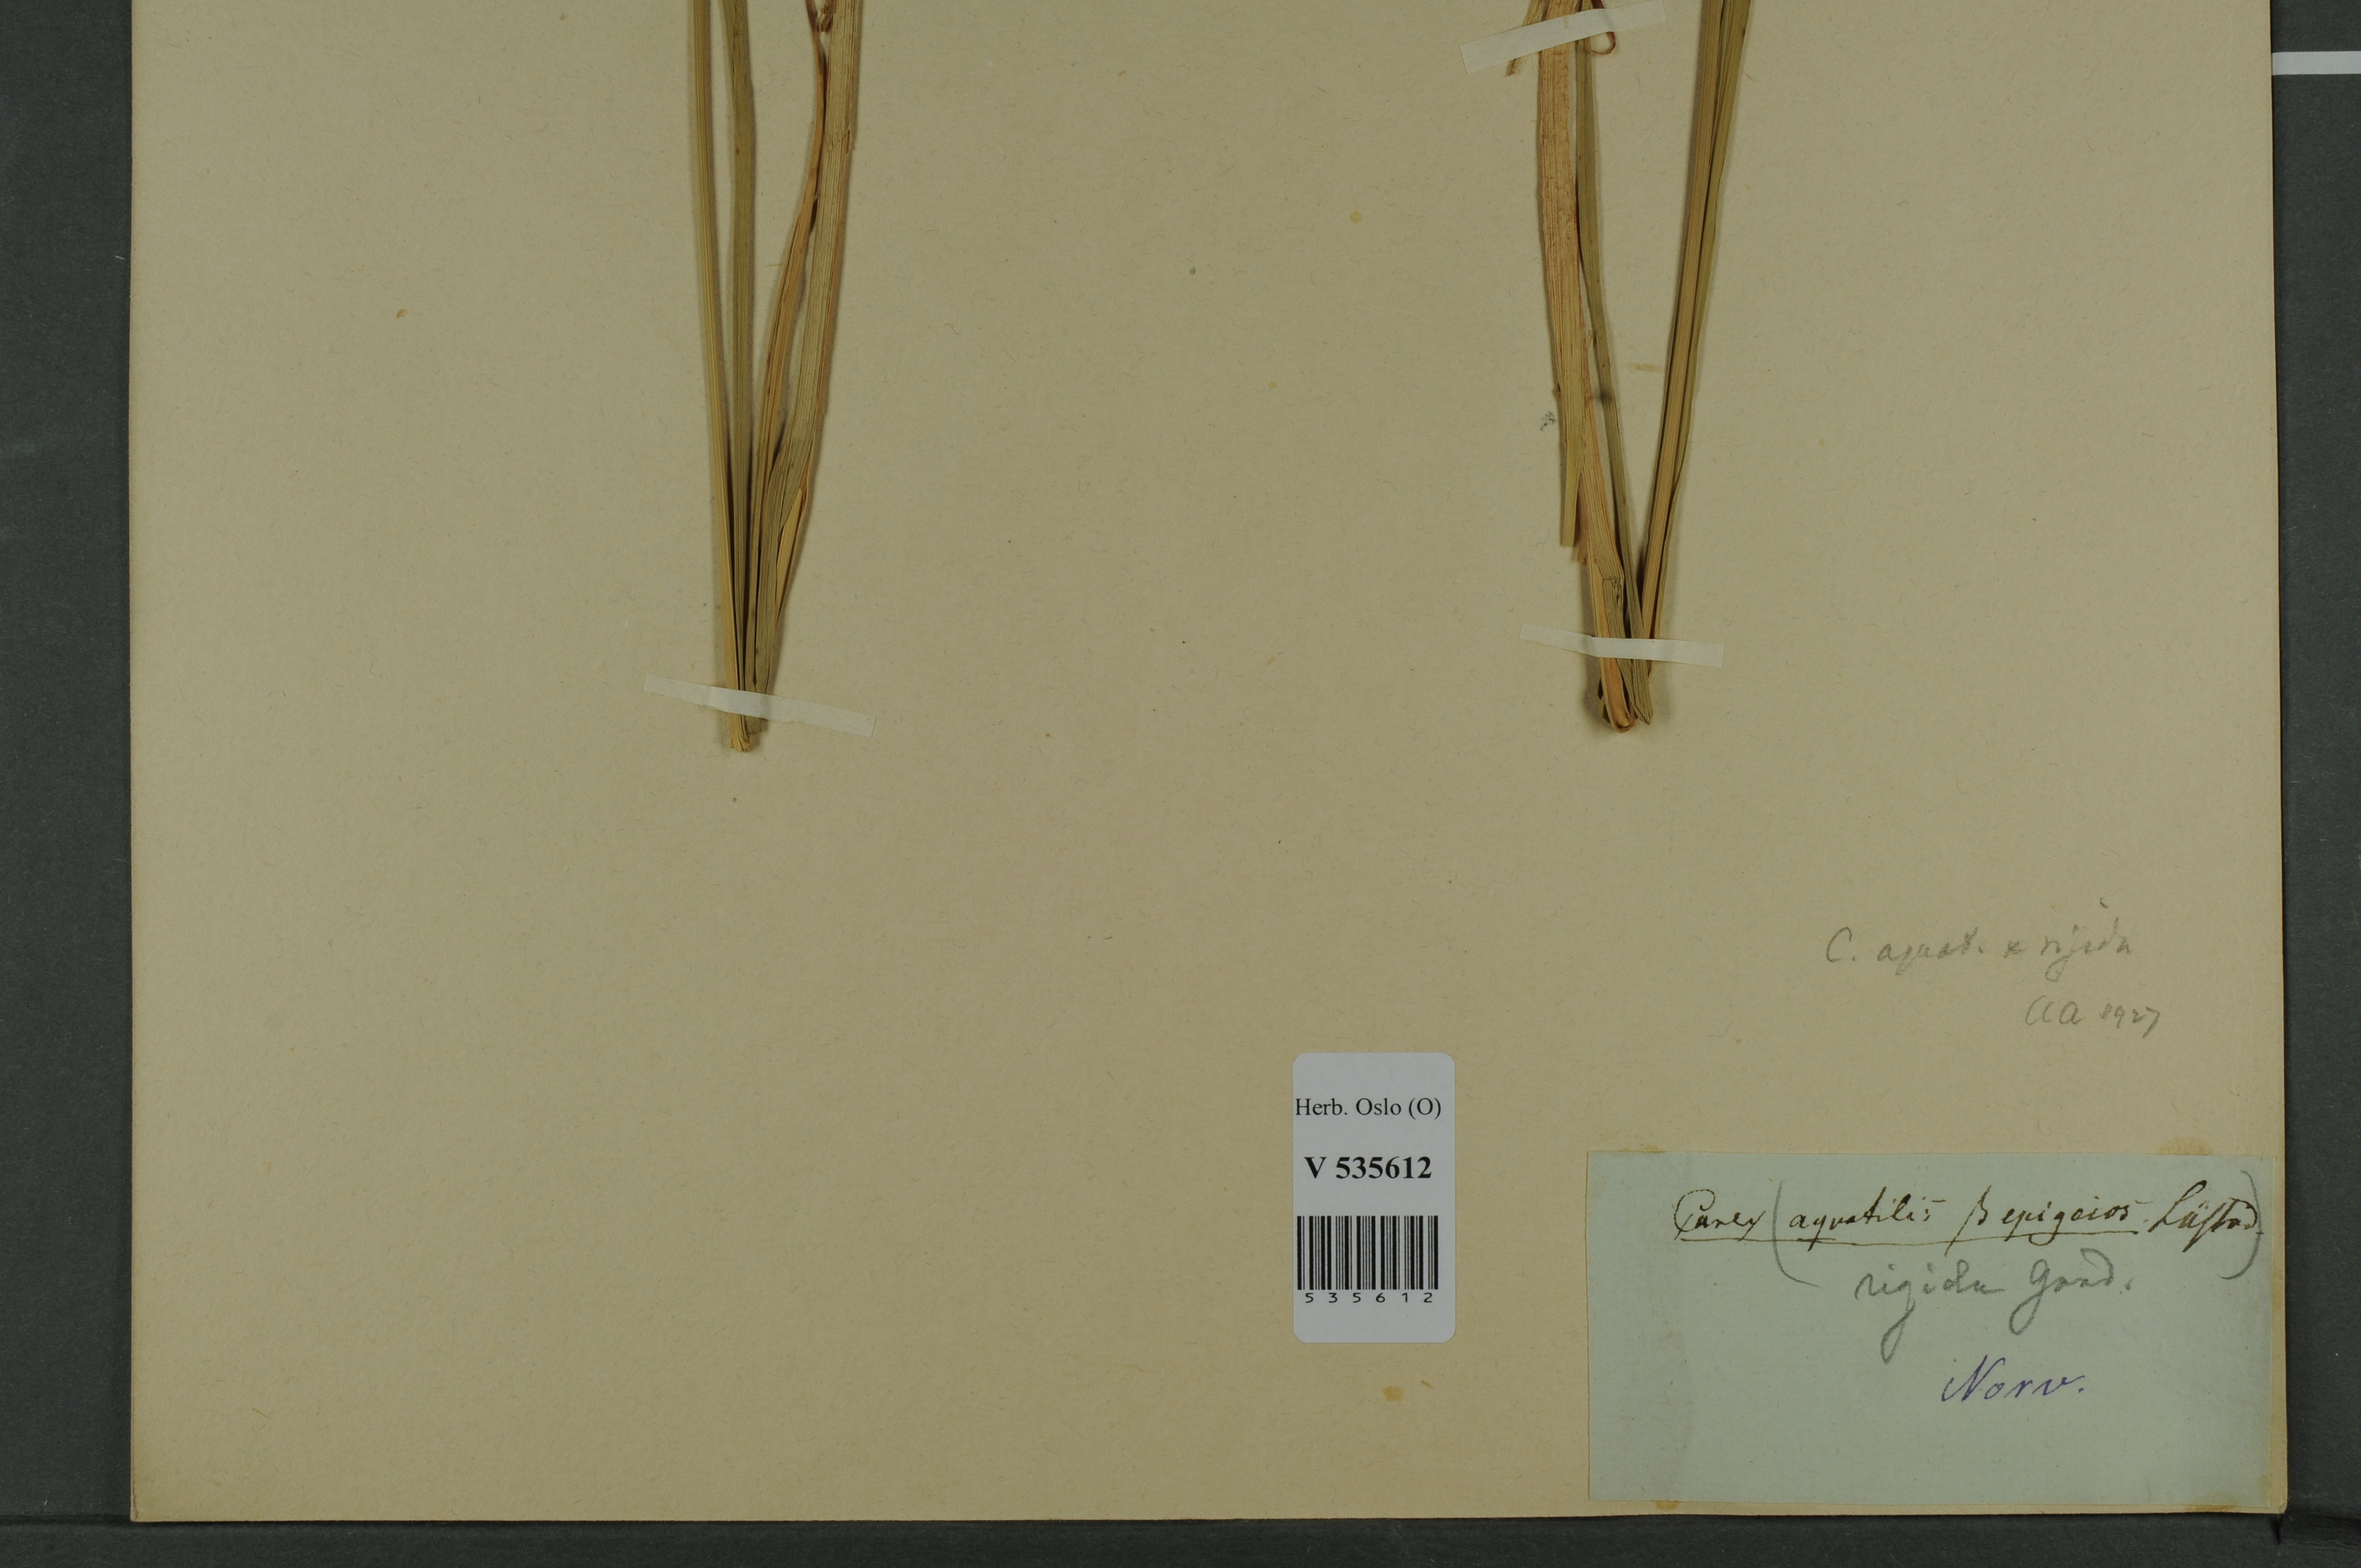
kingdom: Plantae
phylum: Tracheophyta
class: Liliopsida
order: Poales
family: Cyperaceae
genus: Carex
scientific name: Carex
